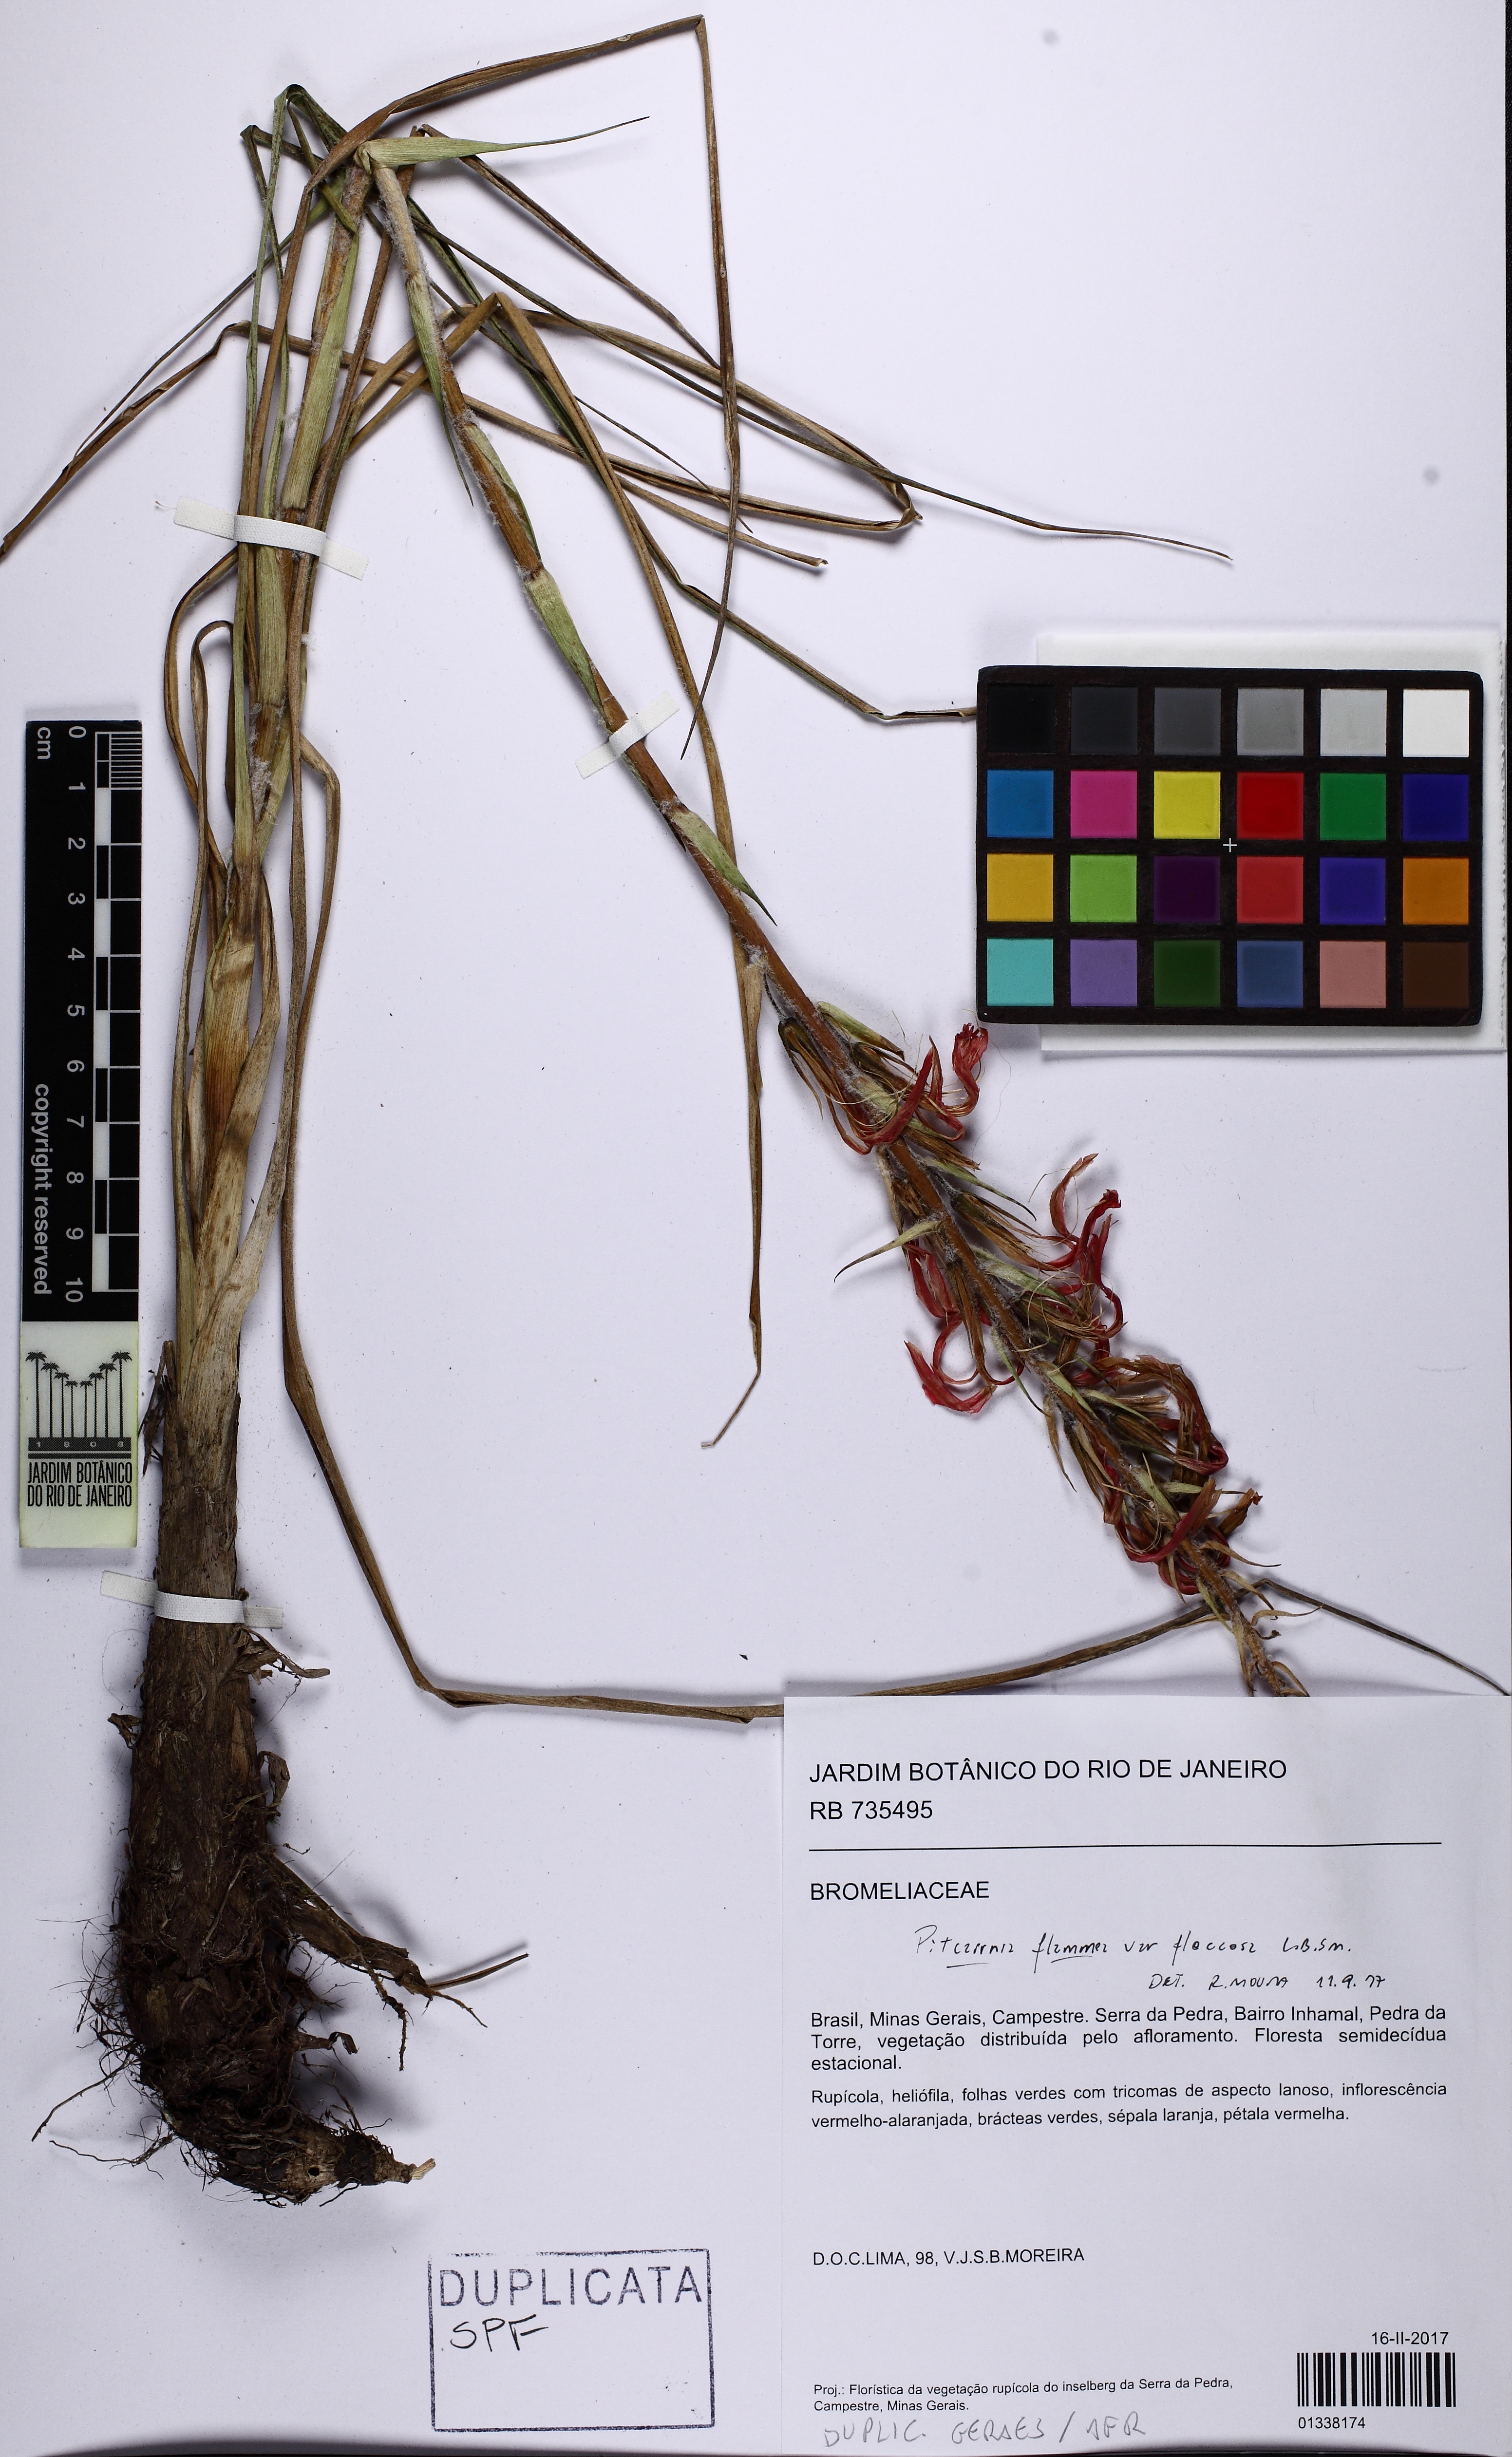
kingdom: Plantae
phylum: Tracheophyta
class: Liliopsida
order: Poales
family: Bromeliaceae
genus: Pitcairnia
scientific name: Pitcairnia flammea
